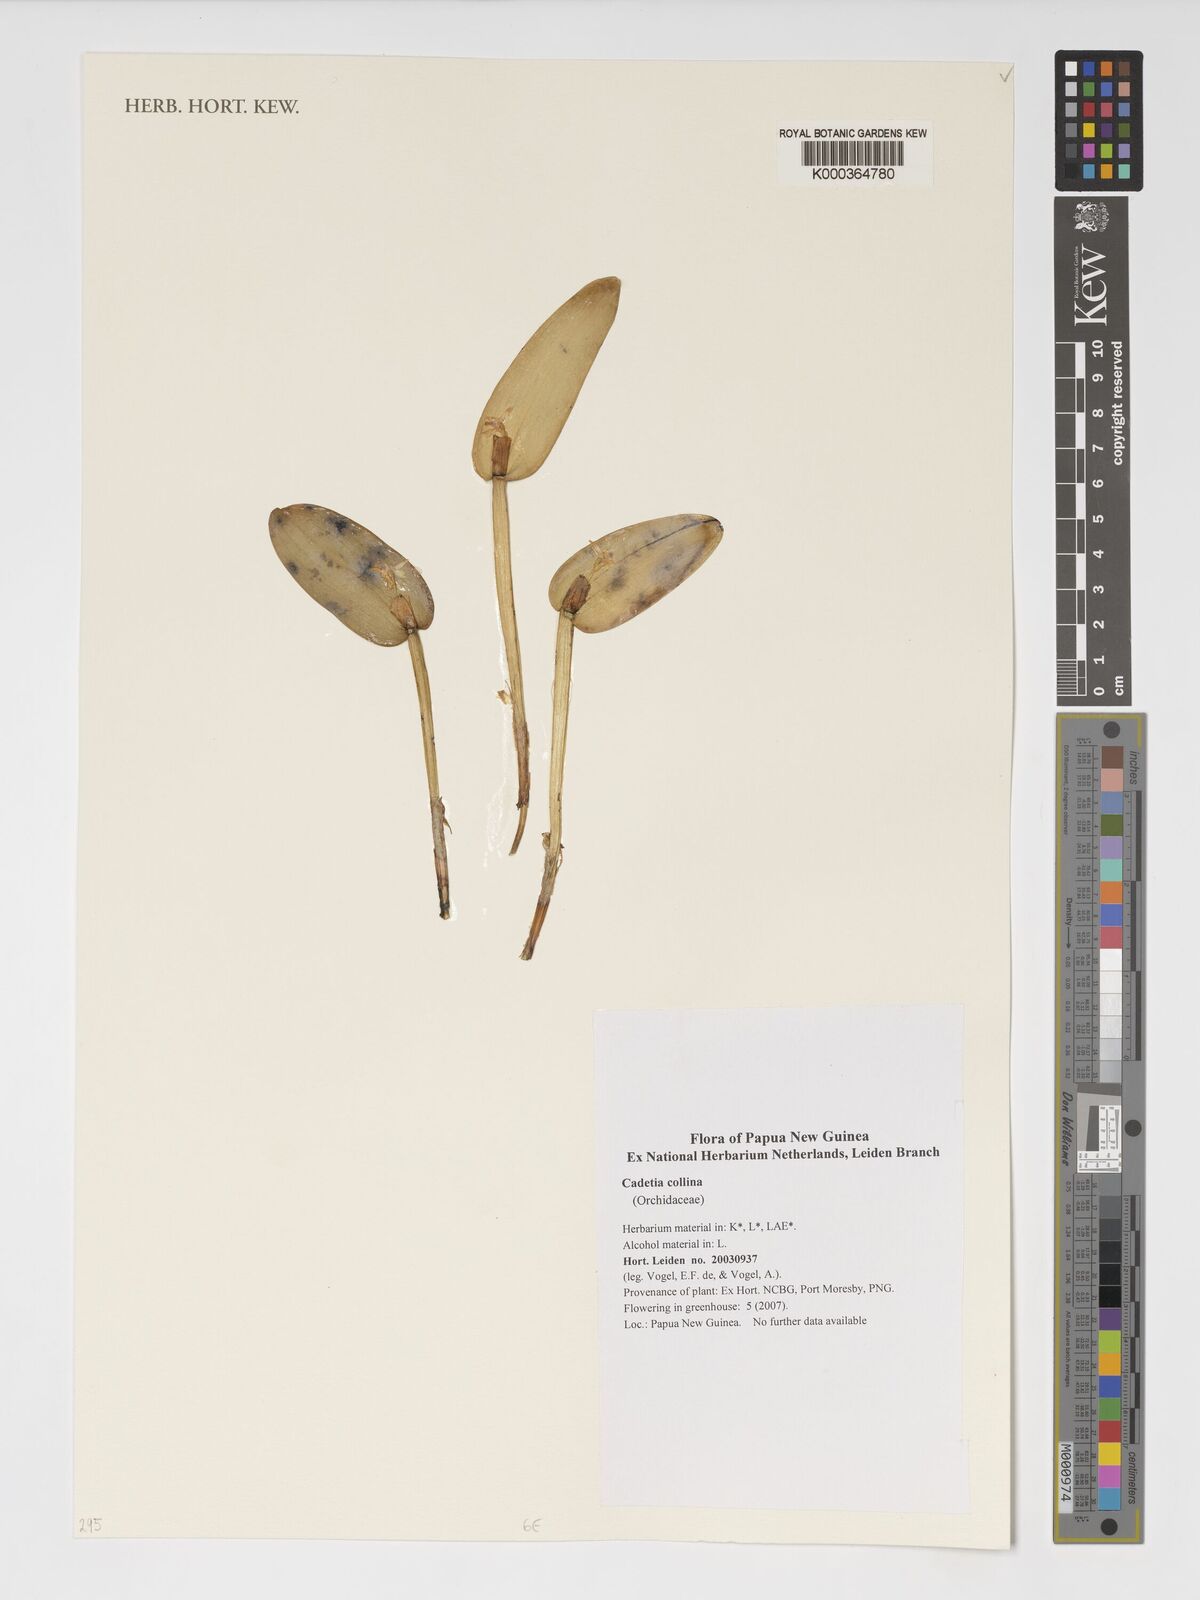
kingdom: Plantae
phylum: Tracheophyta
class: Liliopsida
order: Asparagales
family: Orchidaceae
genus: Dendrobium
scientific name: Dendrobium versteegii
